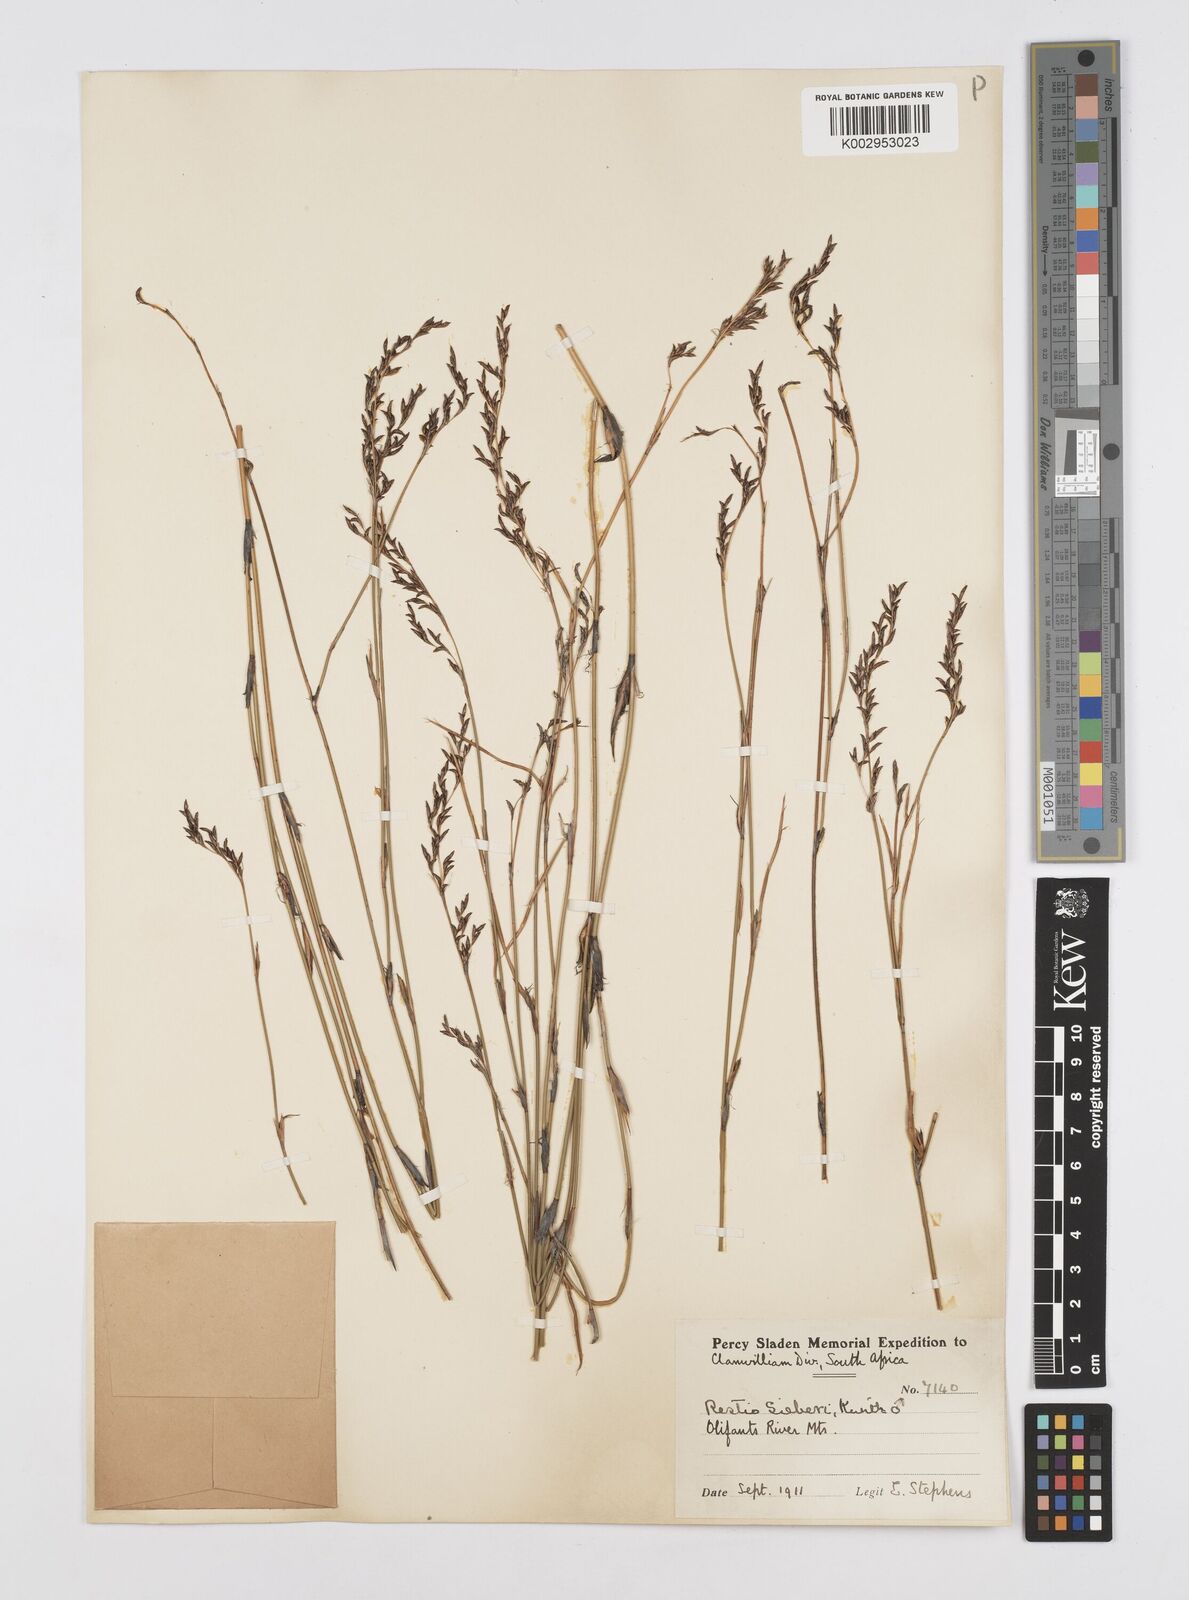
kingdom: Plantae
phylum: Tracheophyta
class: Liliopsida
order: Poales
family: Restionaceae
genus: Restio
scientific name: Restio sieberi
